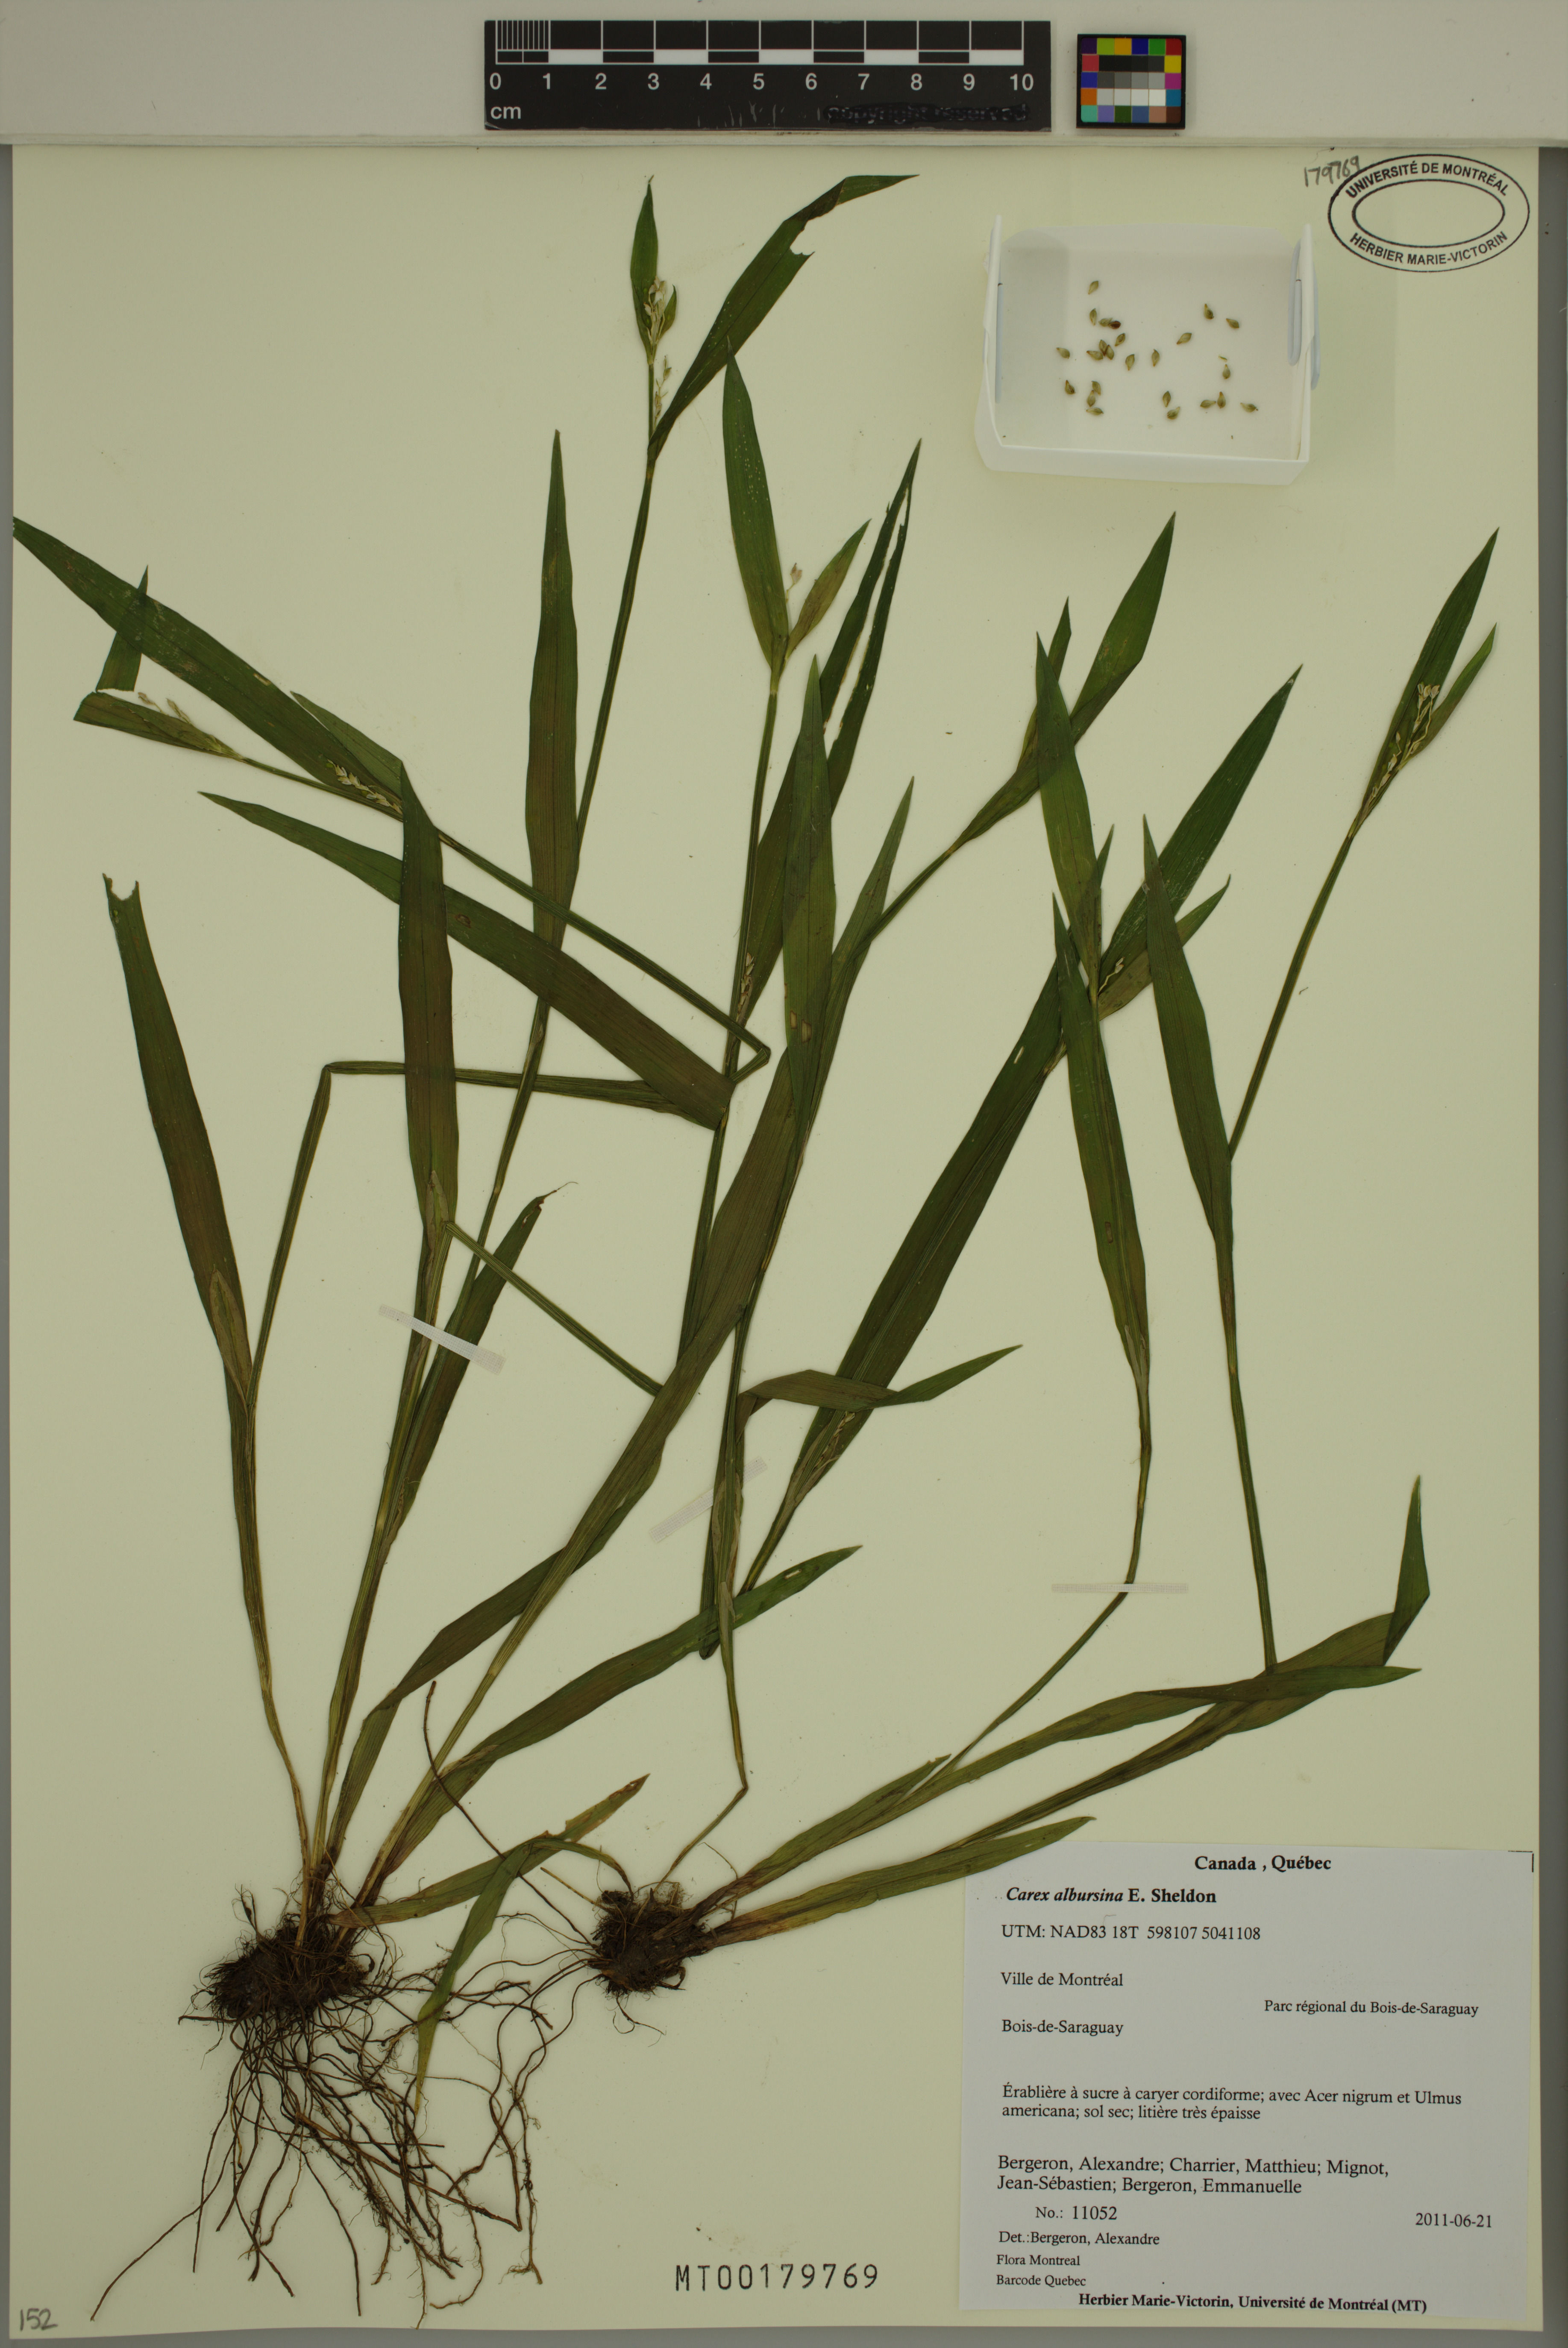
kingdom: Plantae
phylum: Tracheophyta
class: Liliopsida
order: Poales
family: Cyperaceae
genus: Carex
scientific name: Carex albursina
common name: Blunt-scale wood sedge
